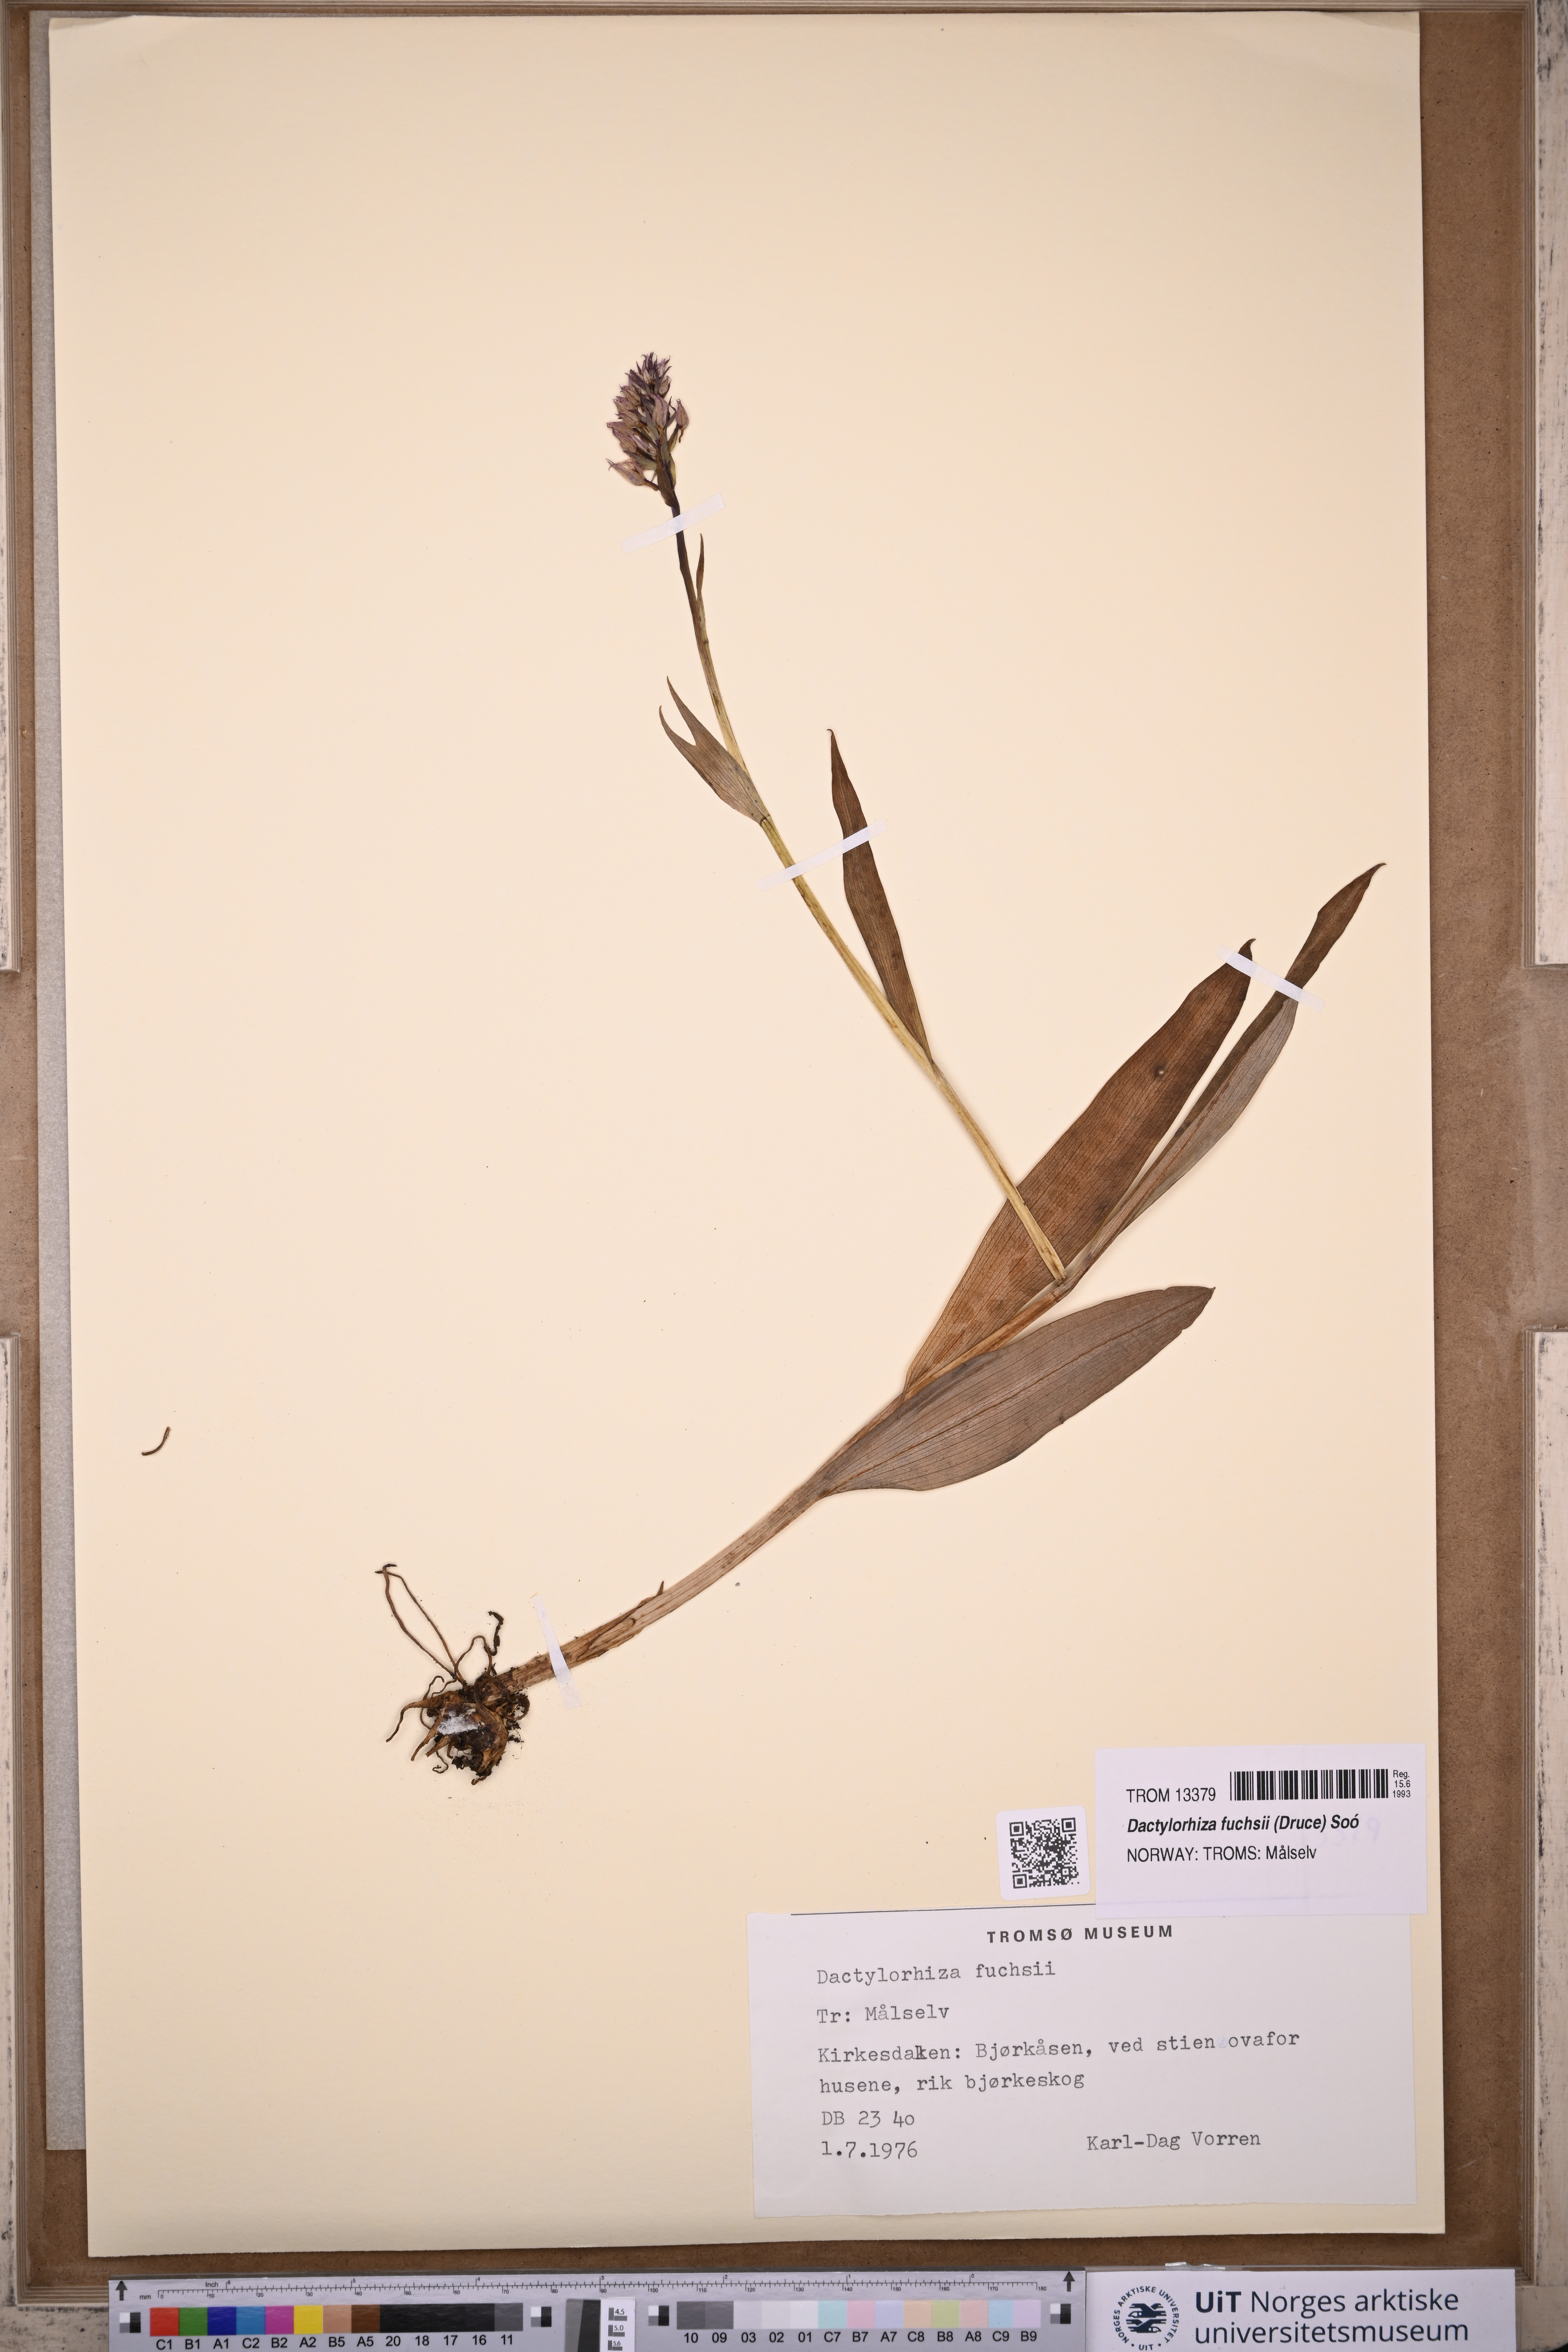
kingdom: Plantae
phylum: Tracheophyta
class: Liliopsida
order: Asparagales
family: Orchidaceae
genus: Dactylorhiza
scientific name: Dactylorhiza maculata
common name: Heath spotted-orchid
